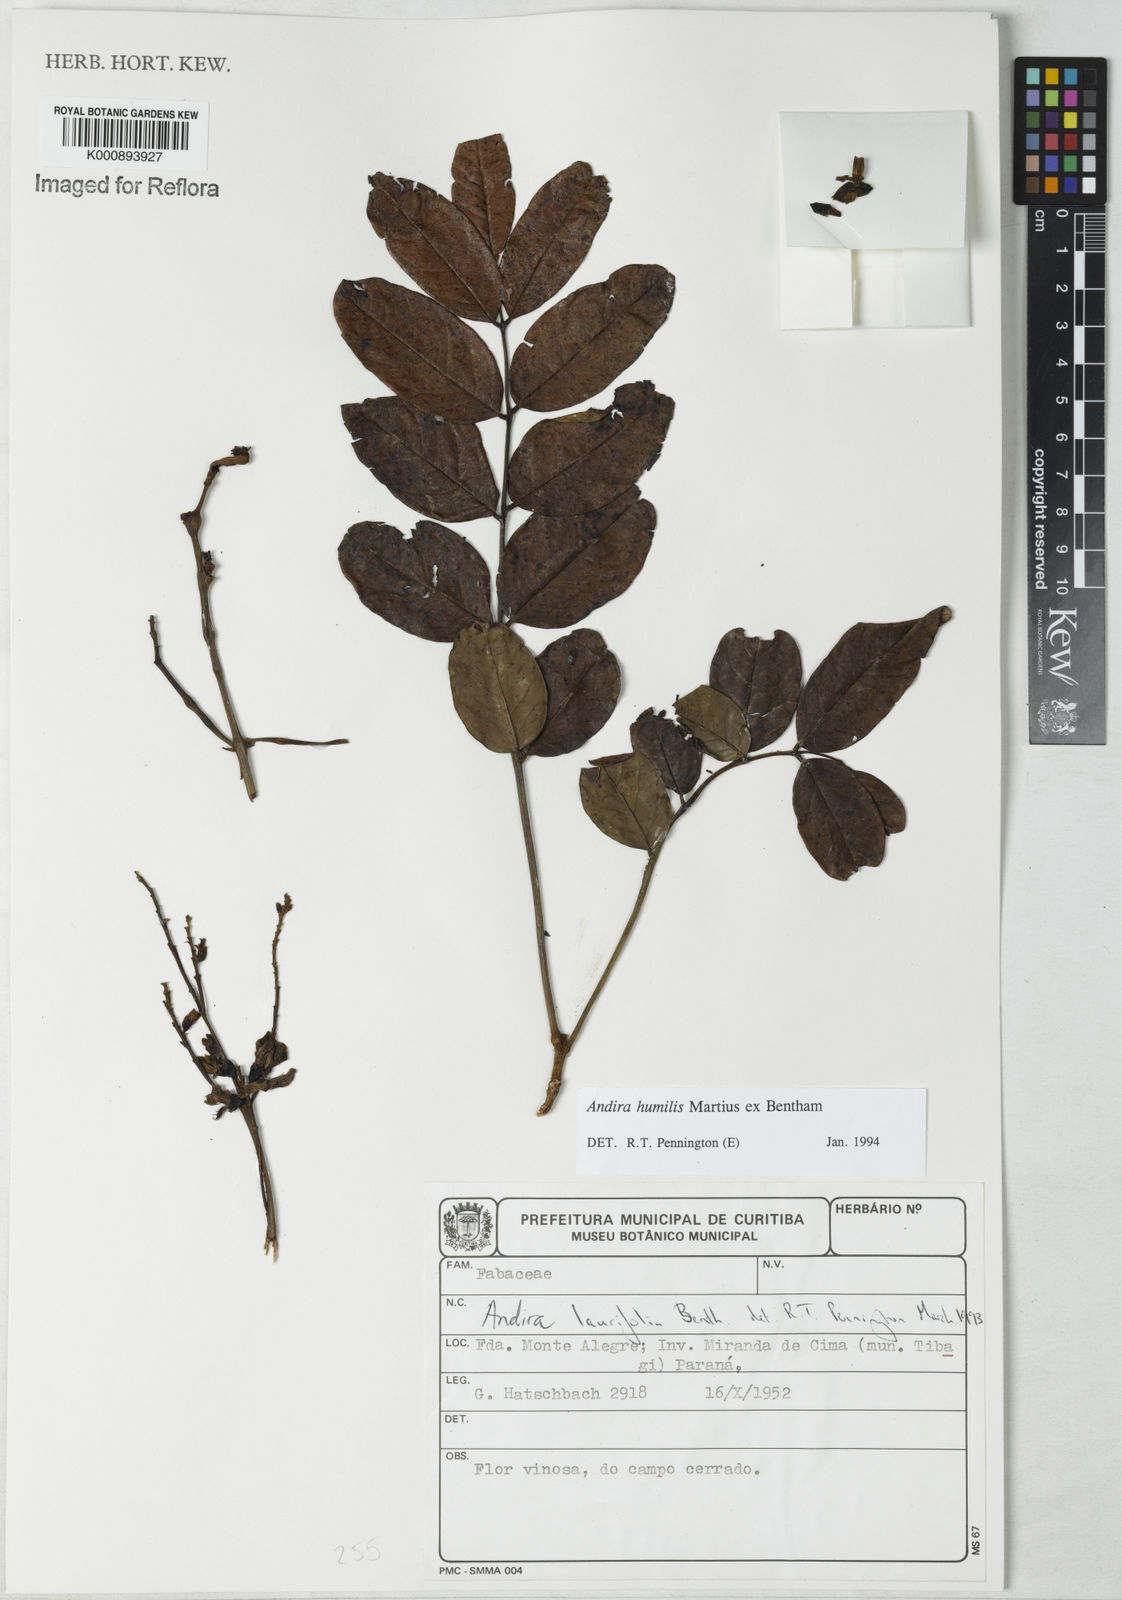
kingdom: Plantae
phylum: Tracheophyta
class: Magnoliopsida
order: Fabales
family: Fabaceae
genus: Andira
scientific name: Andira humilis
